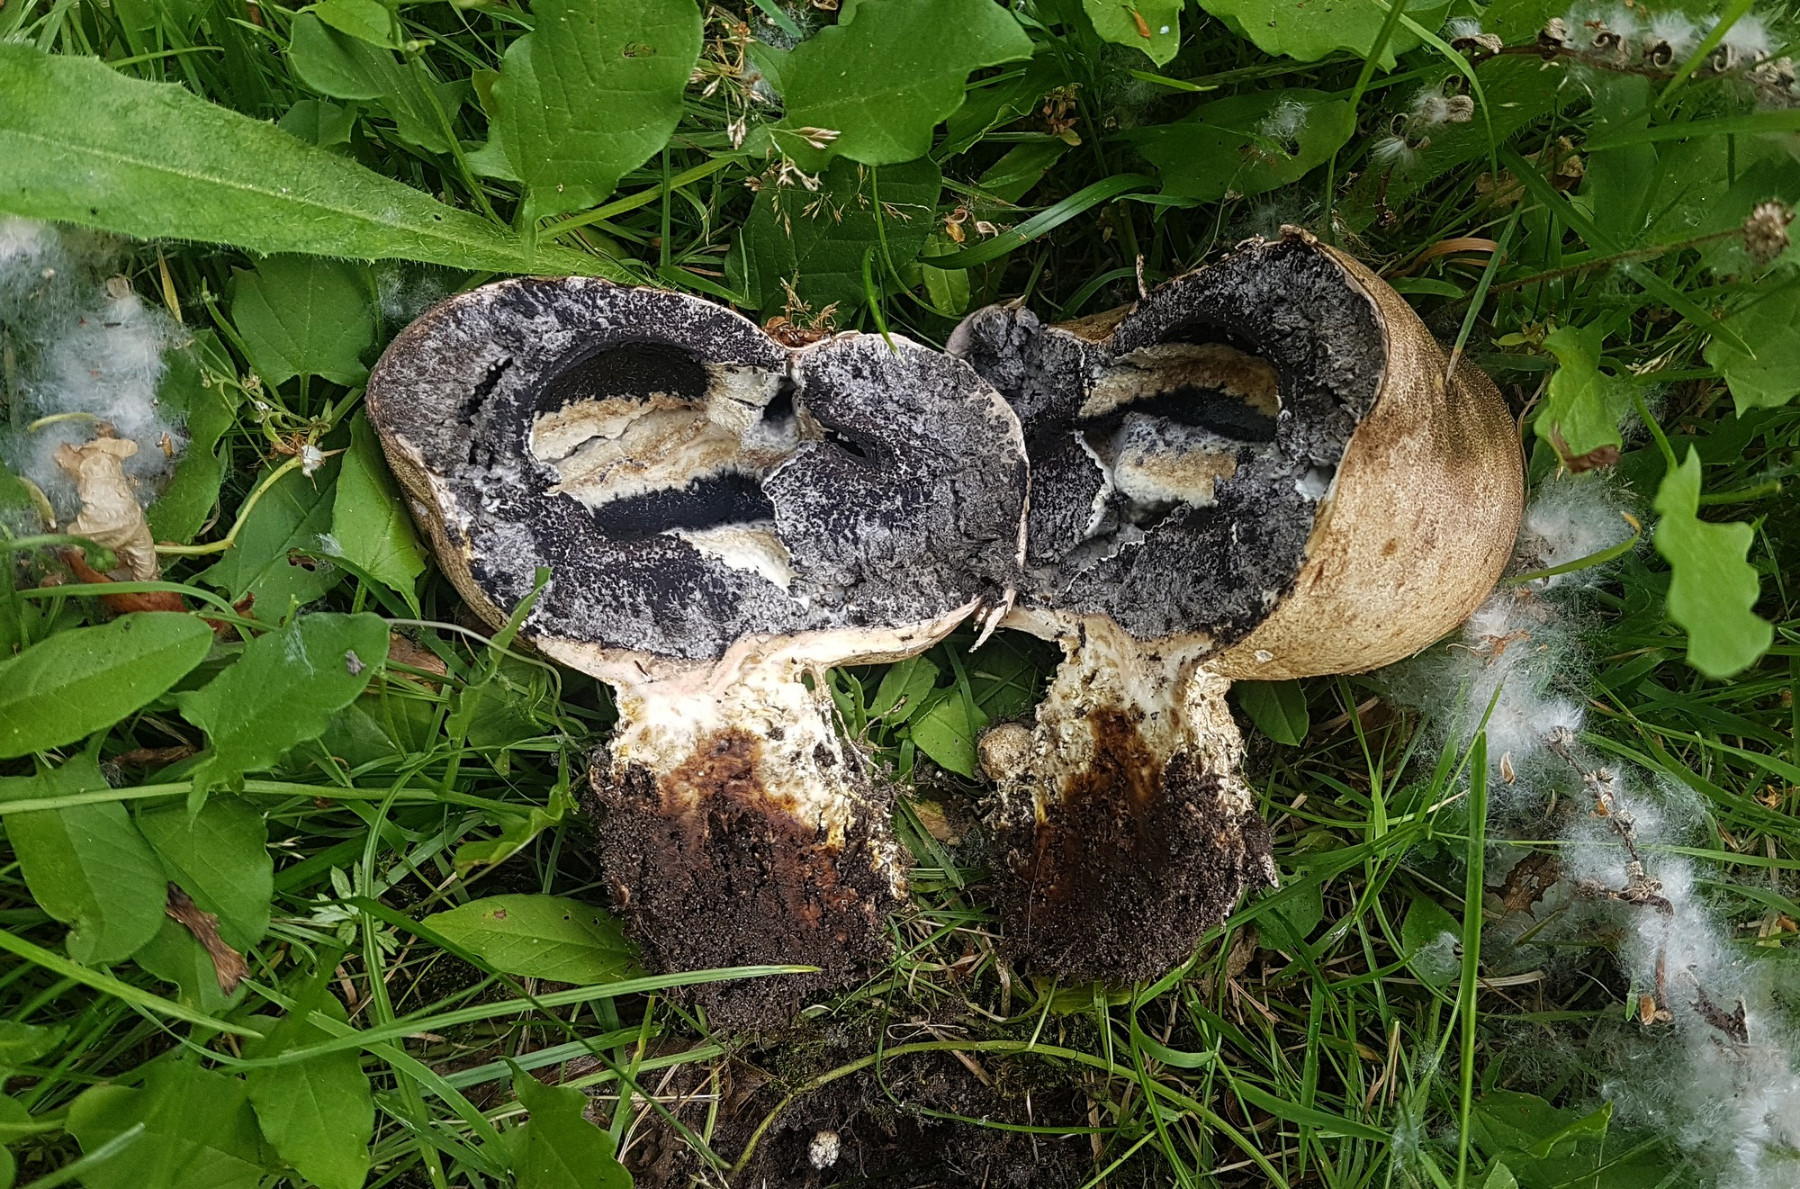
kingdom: Fungi
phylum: Basidiomycota
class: Agaricomycetes
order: Boletales
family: Sclerodermataceae
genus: Scleroderma
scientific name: Scleroderma bovista
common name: bovist-bruskbold
